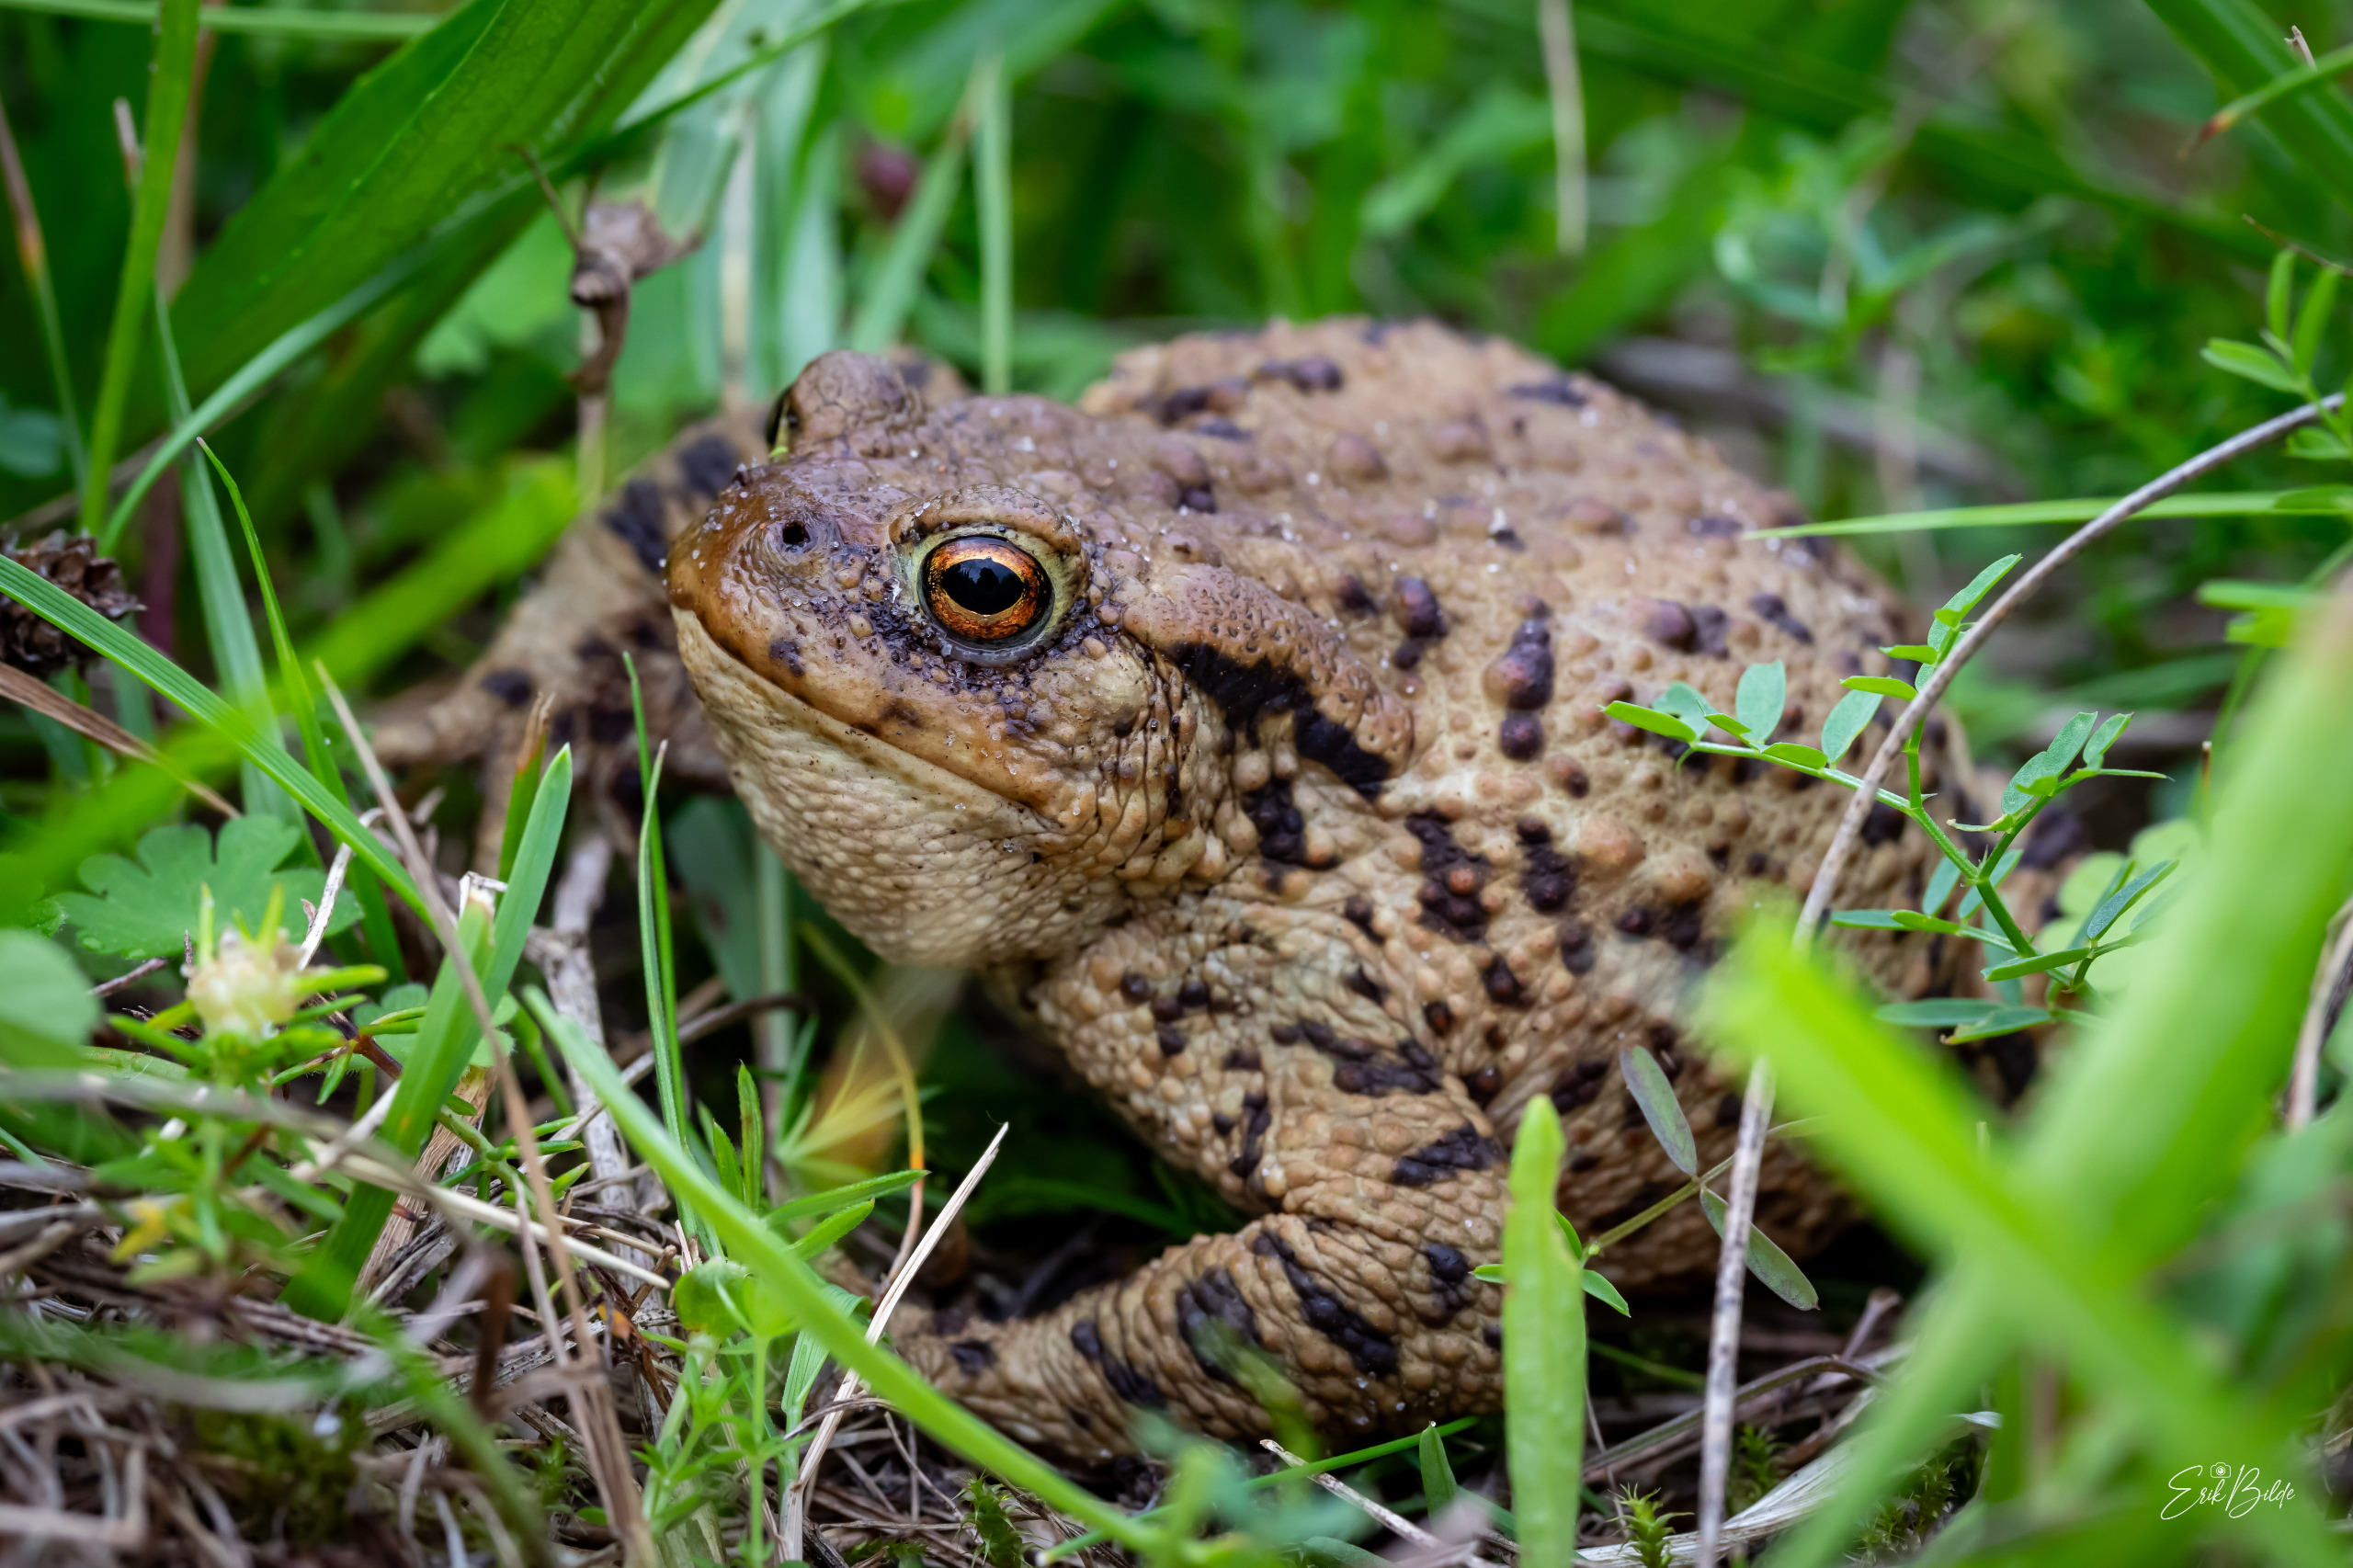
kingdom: Animalia
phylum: Chordata
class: Amphibia
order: Anura
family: Bufonidae
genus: Bufo
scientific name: Bufo bufo
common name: Skrubtudse
